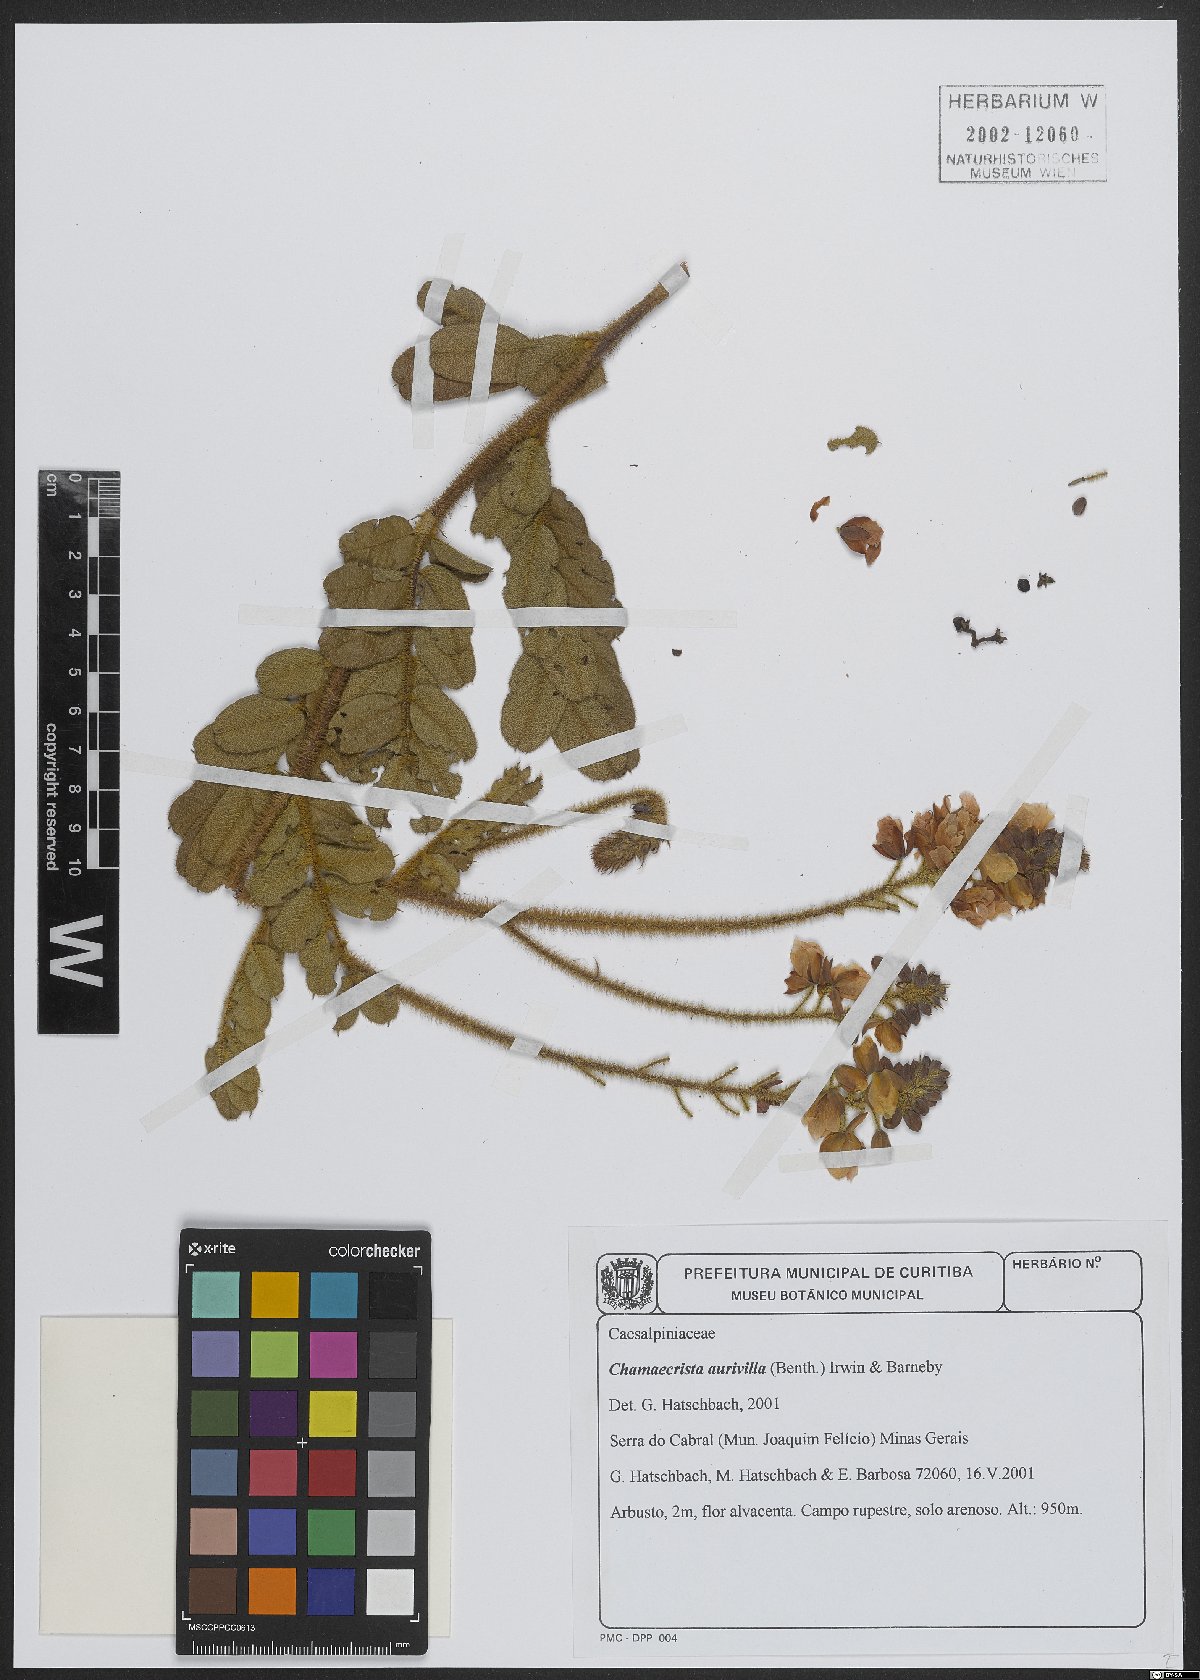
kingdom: Plantae
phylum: Tracheophyta
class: Magnoliopsida
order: Fabales
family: Fabaceae
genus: Chamaecrista
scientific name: Chamaecrista aurivilla
